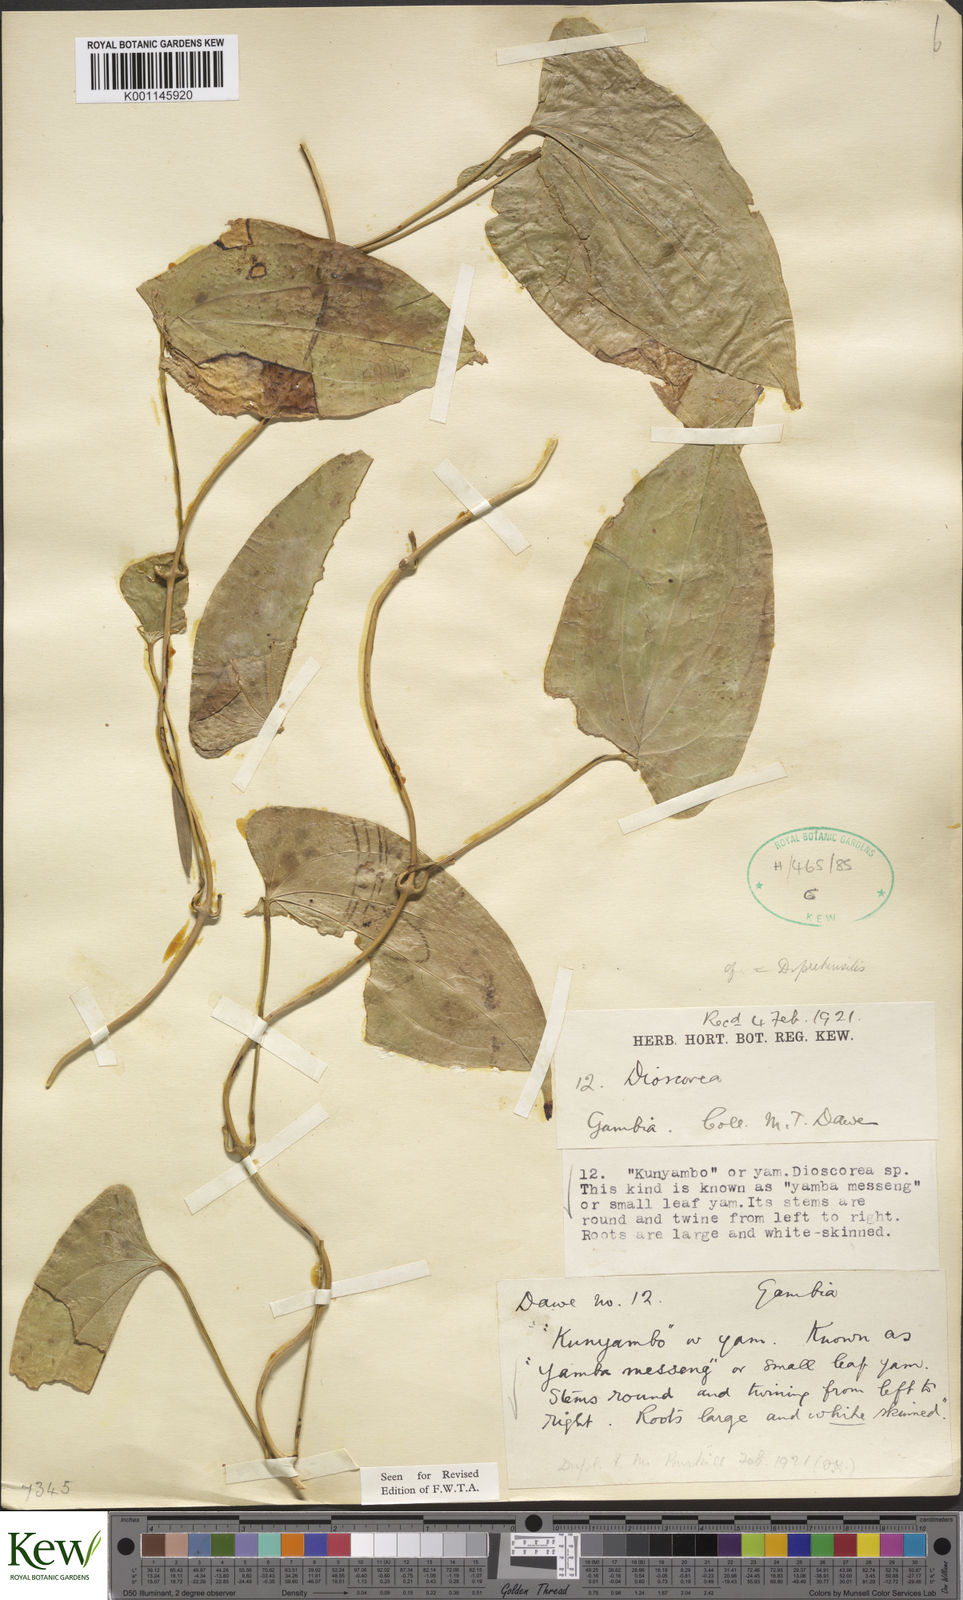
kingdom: Plantae
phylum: Tracheophyta
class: Liliopsida
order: Dioscoreales
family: Dioscoreaceae
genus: Dioscorea
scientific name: Dioscorea togoensis
